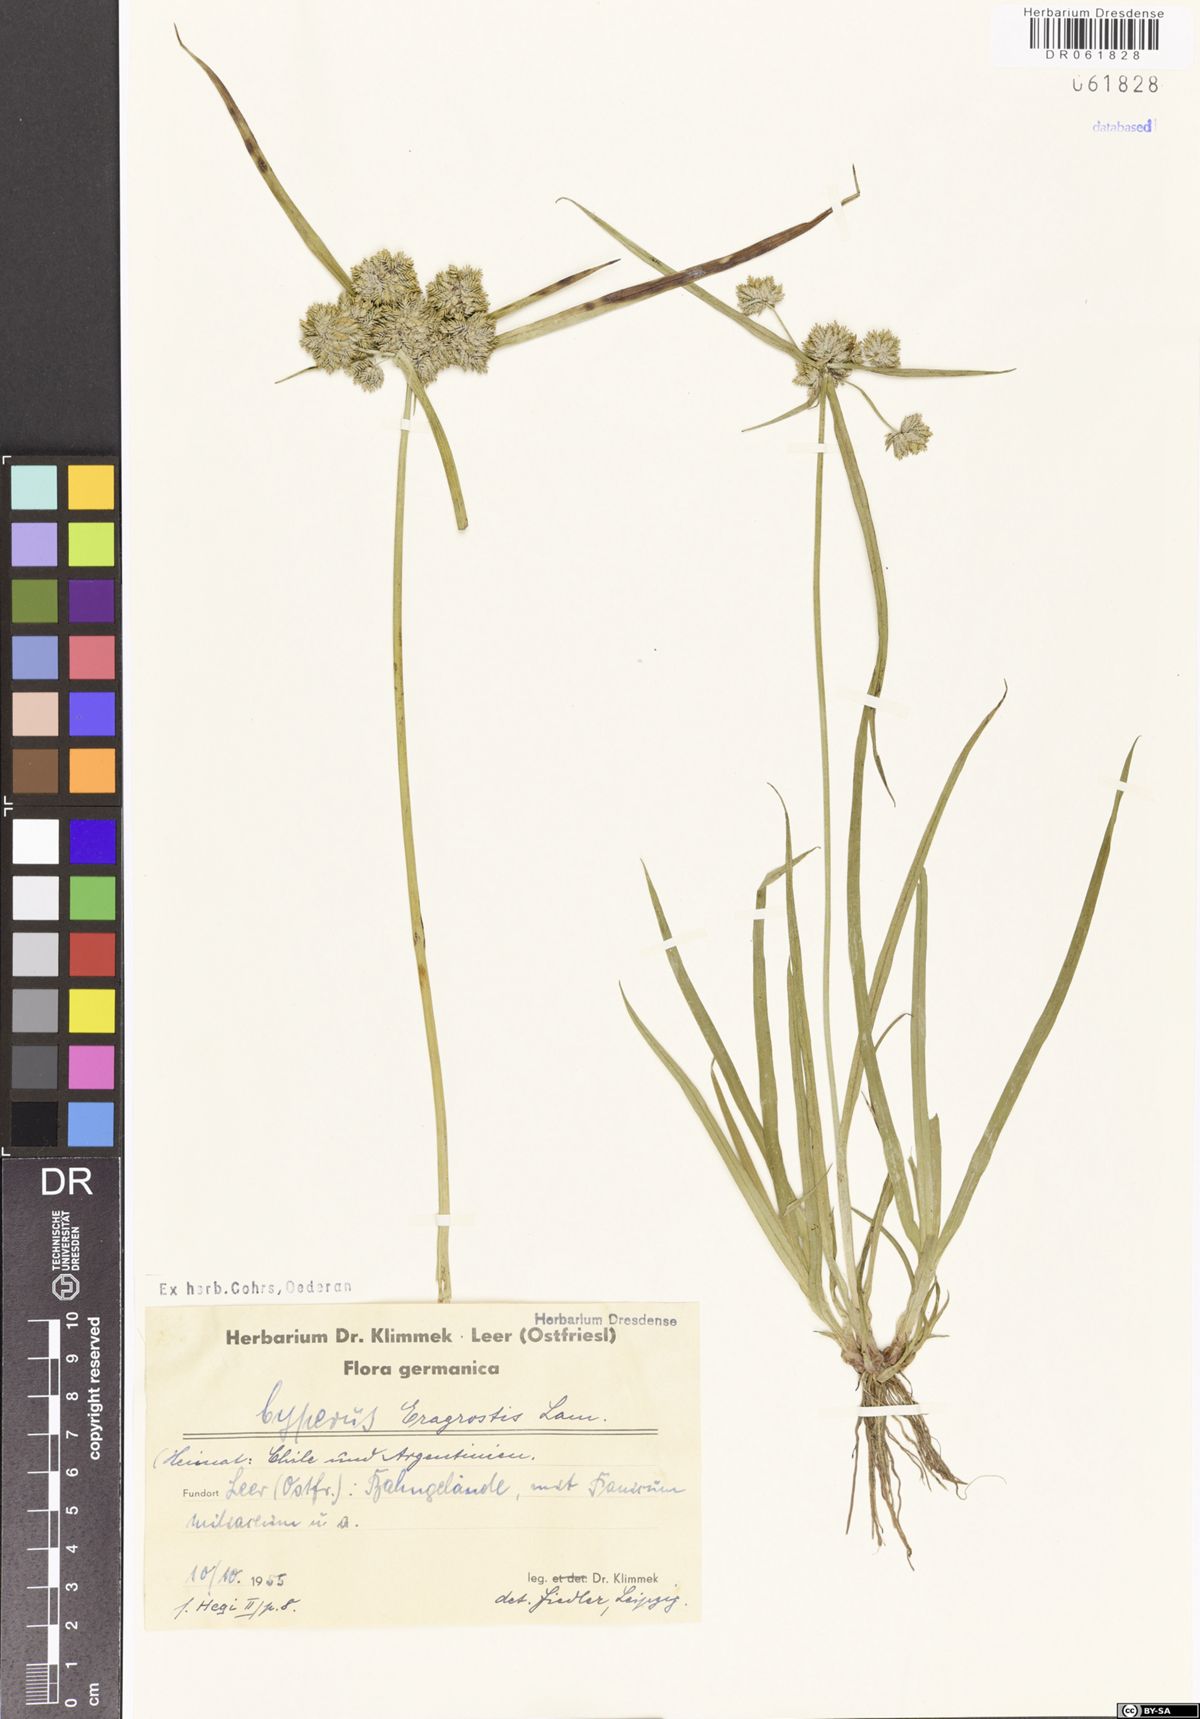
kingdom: Plantae
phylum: Tracheophyta
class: Liliopsida
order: Poales
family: Cyperaceae
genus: Cyperus
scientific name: Cyperus eragrostis
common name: Tall flatsedge
